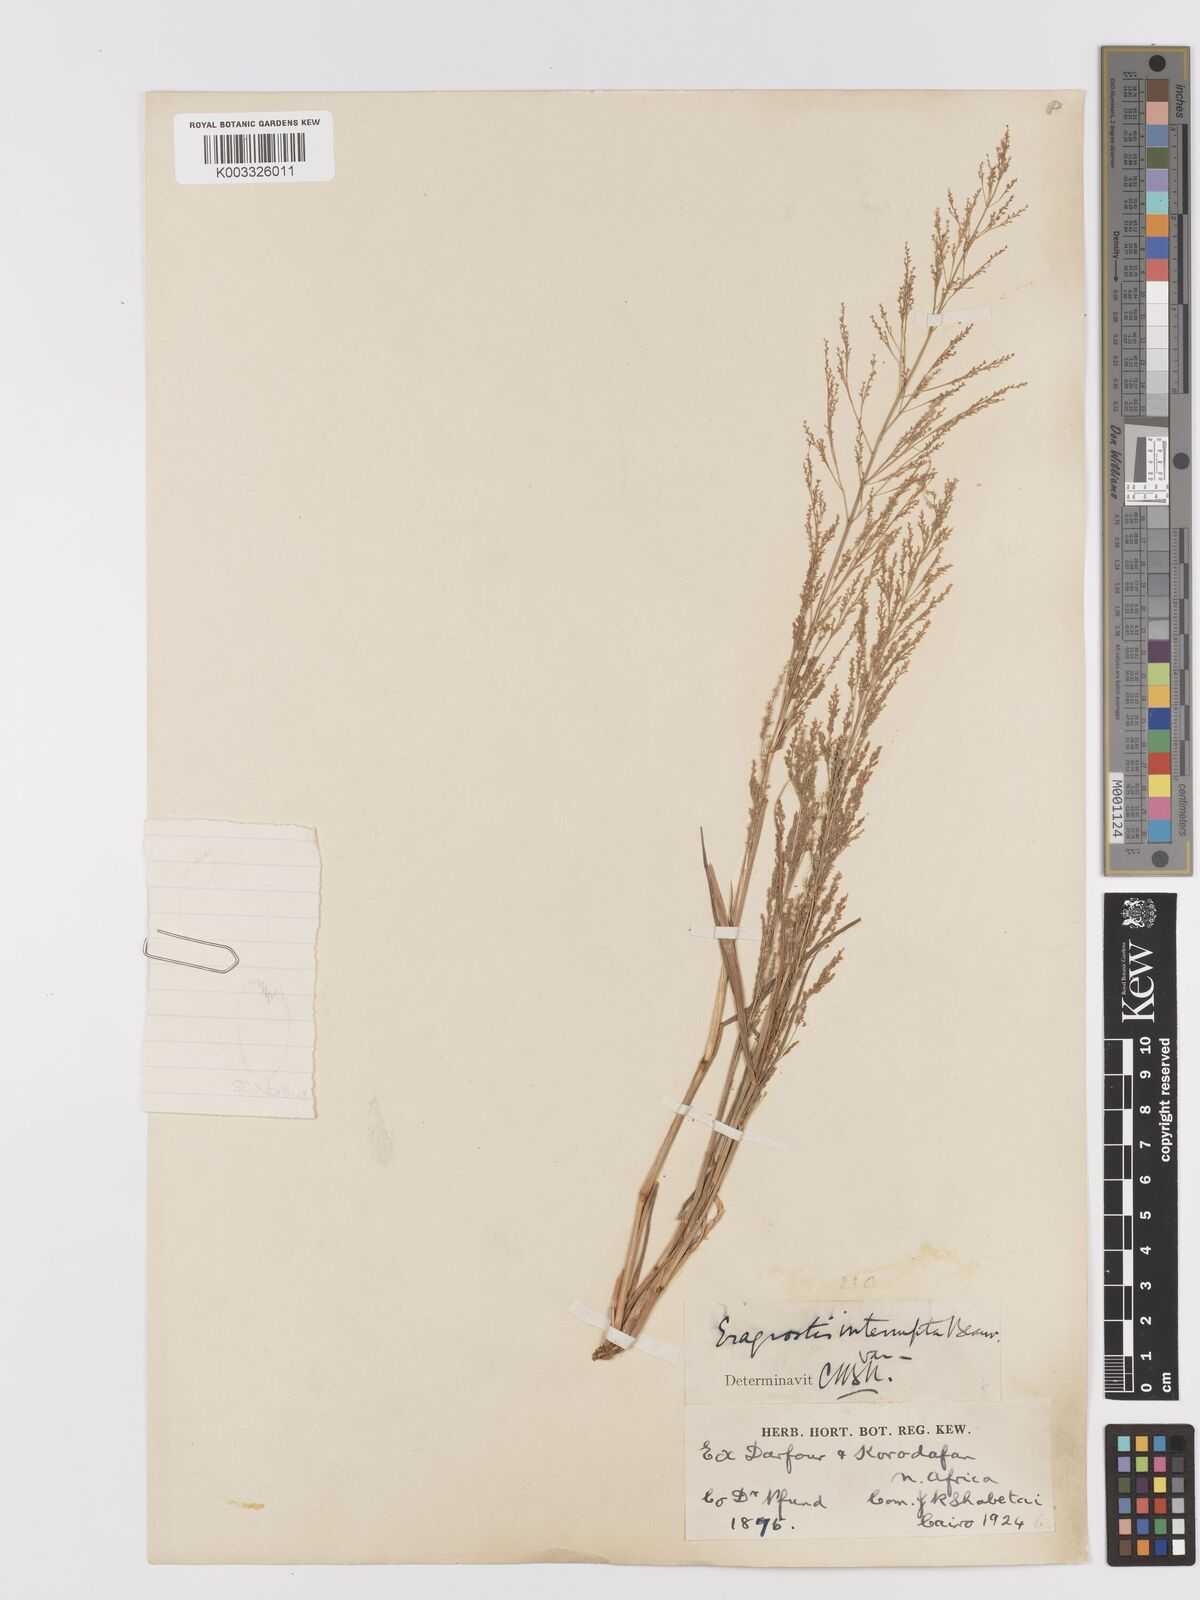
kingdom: Plantae
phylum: Tracheophyta
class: Liliopsida
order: Poales
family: Poaceae
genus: Eragrostis
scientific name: Eragrostis japonica
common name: Pond lovegrass
